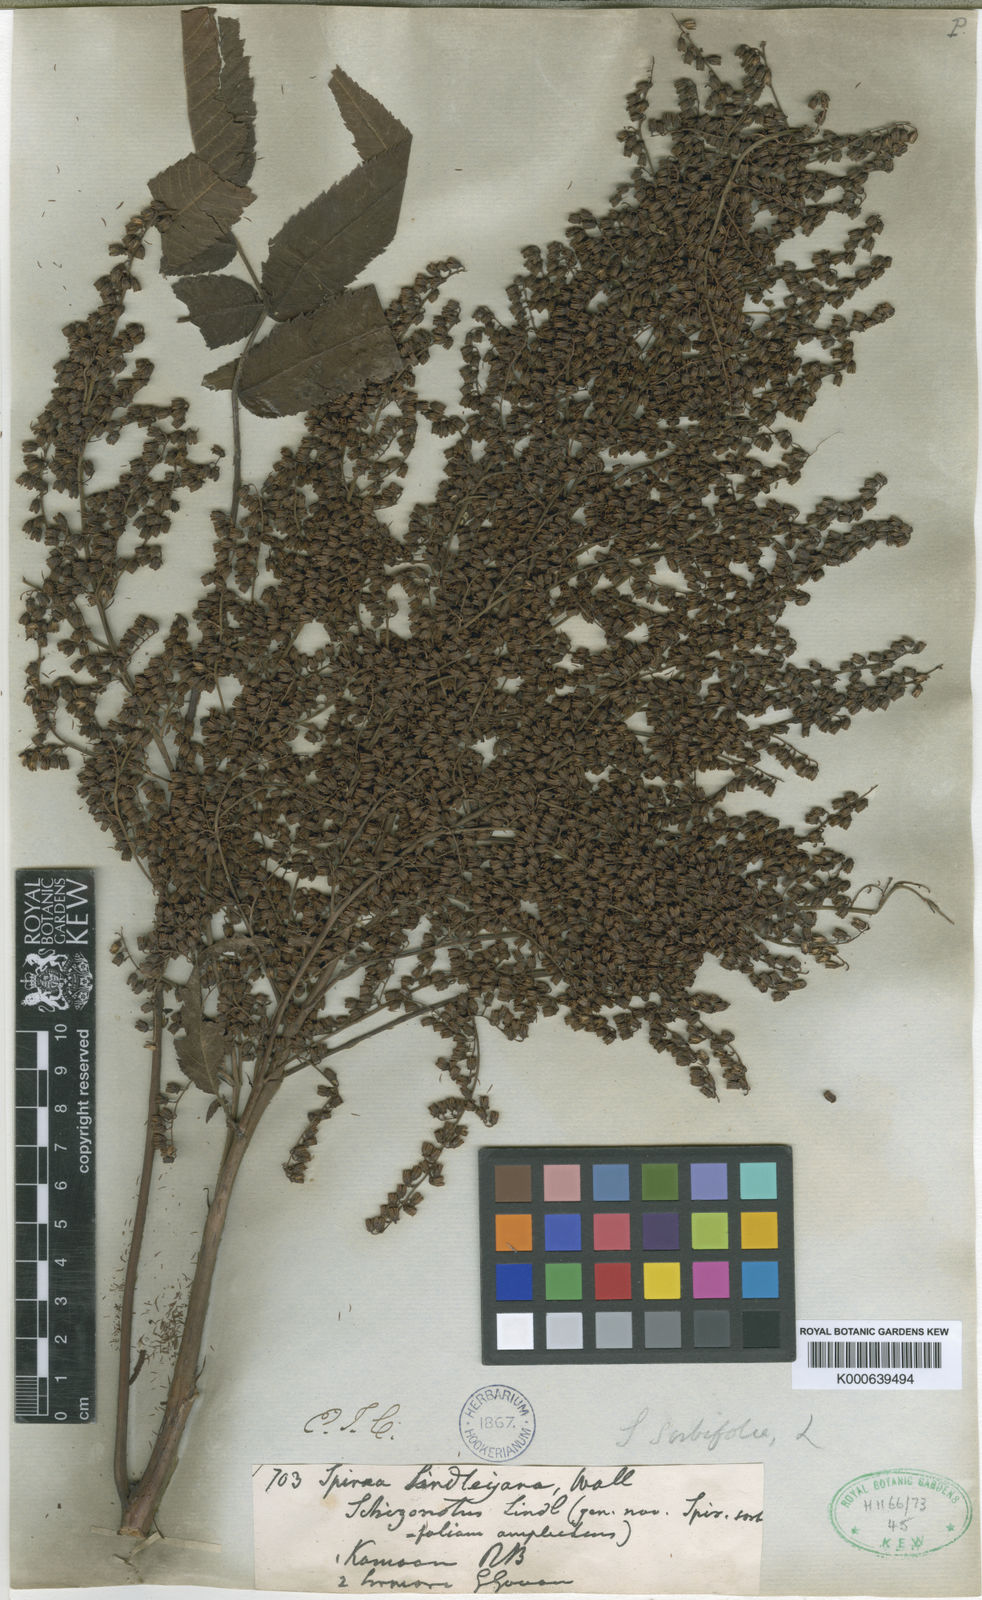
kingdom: Plantae
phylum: Tracheophyta
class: Magnoliopsida
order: Rosales
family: Rosaceae
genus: Sorbaria
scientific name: Sorbaria sorbifolia
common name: False spiraea
